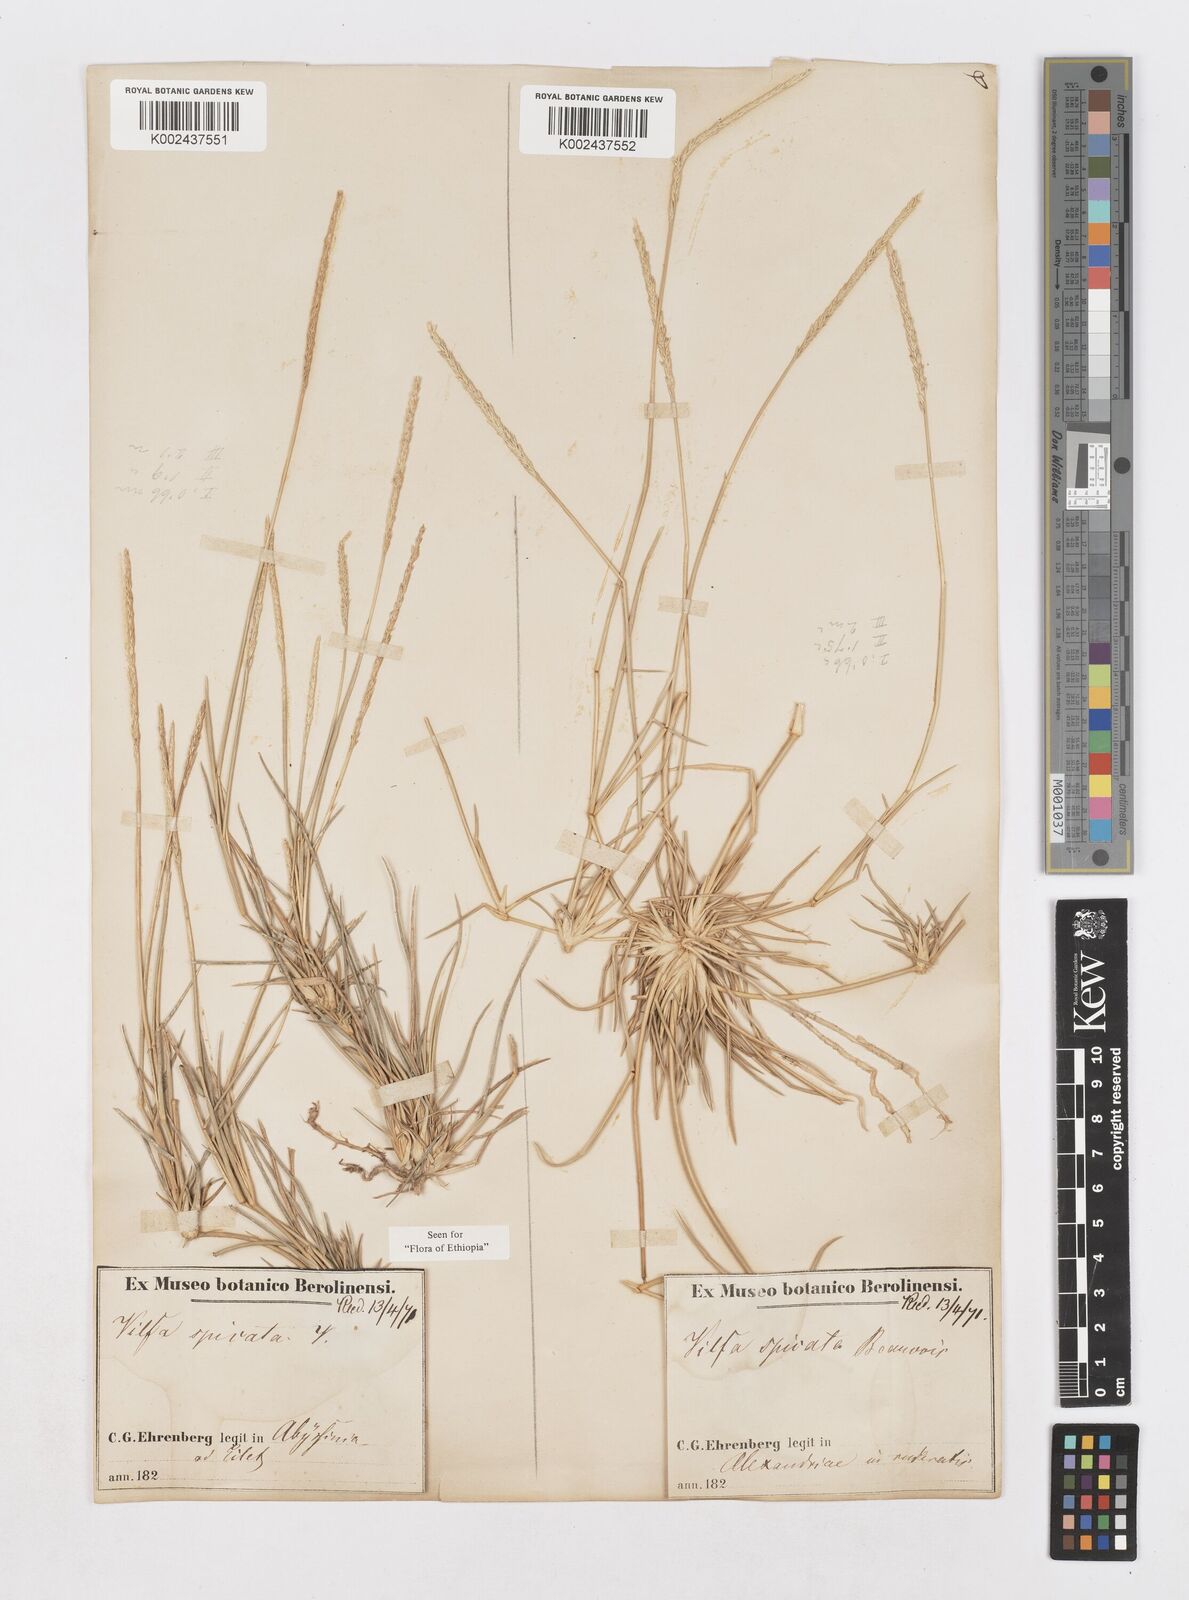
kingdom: Plantae
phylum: Tracheophyta
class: Liliopsida
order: Poales
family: Poaceae
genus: Sporobolus
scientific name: Sporobolus spicatus
